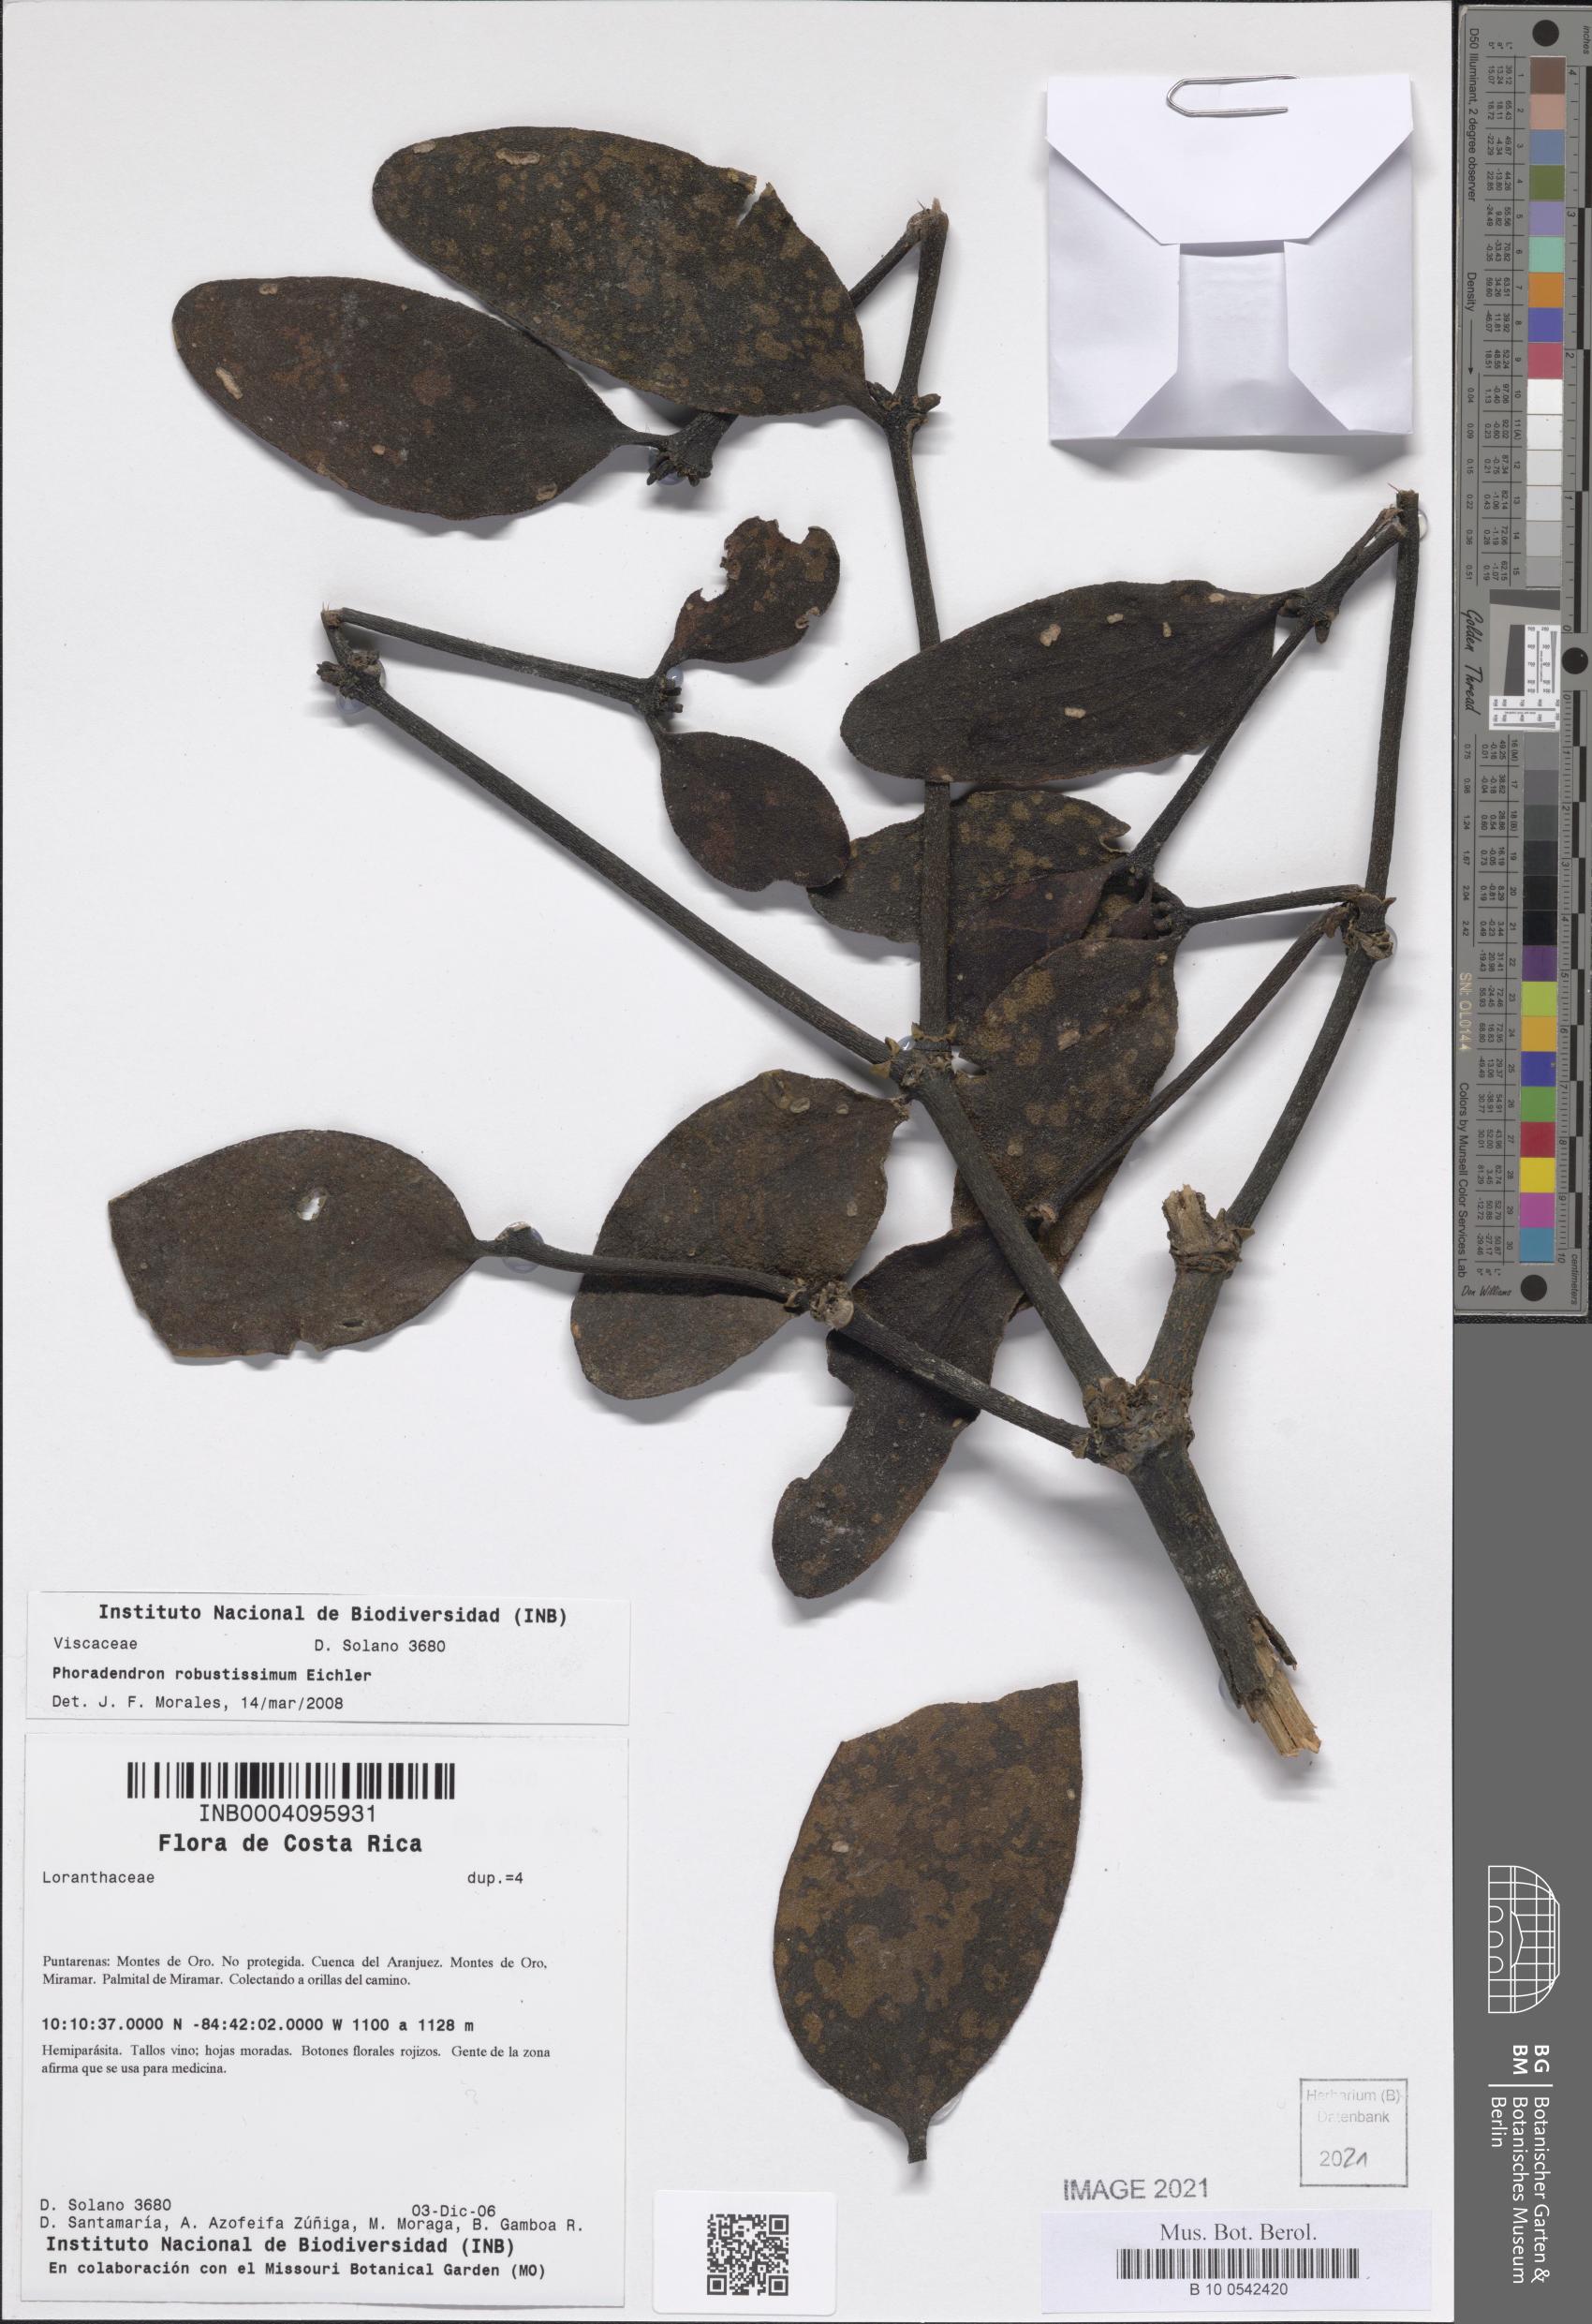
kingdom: Plantae
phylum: Tracheophyta
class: Magnoliopsida
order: Santalales
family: Viscaceae
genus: Phoradendron
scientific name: Phoradendron robustissimum
